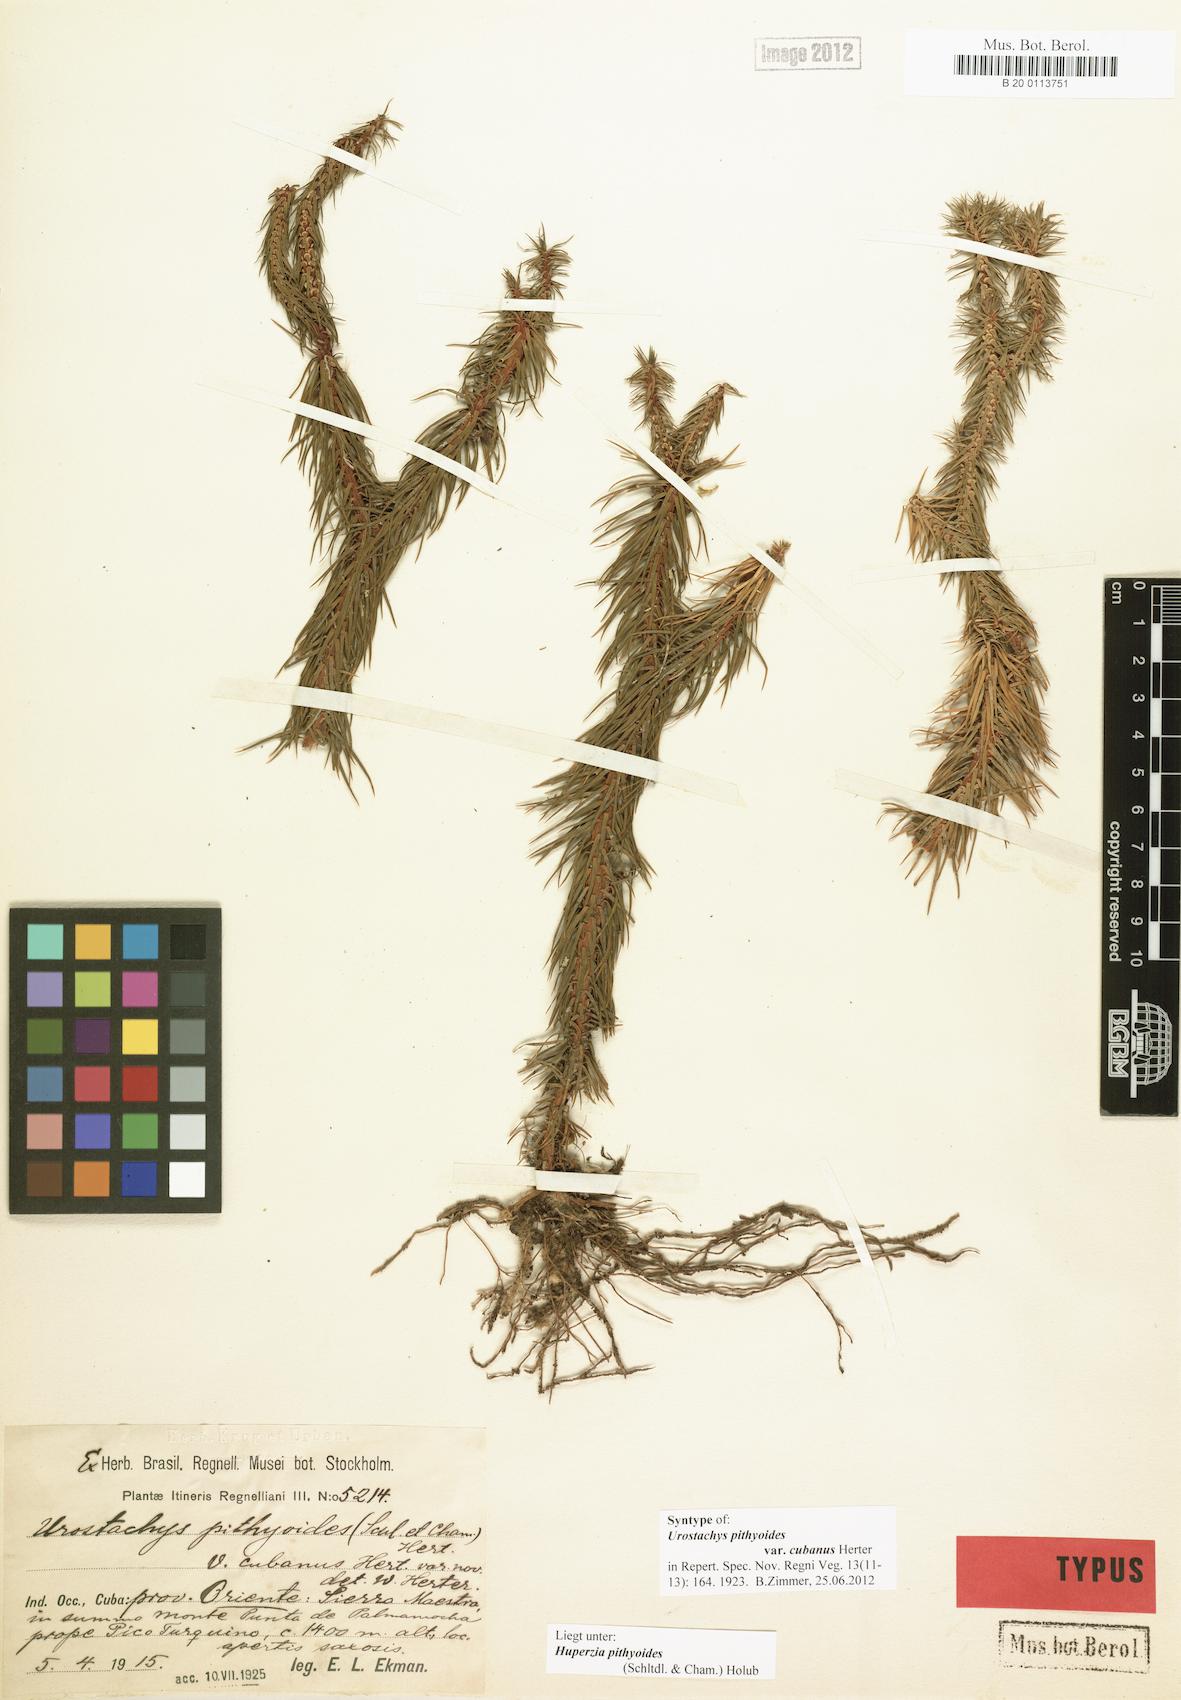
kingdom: Plantae
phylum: Tracheophyta
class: Lycopodiopsida
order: Lycopodiales
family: Lycopodiaceae
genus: Phlegmariurus
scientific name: Phlegmariurus pithyoides
